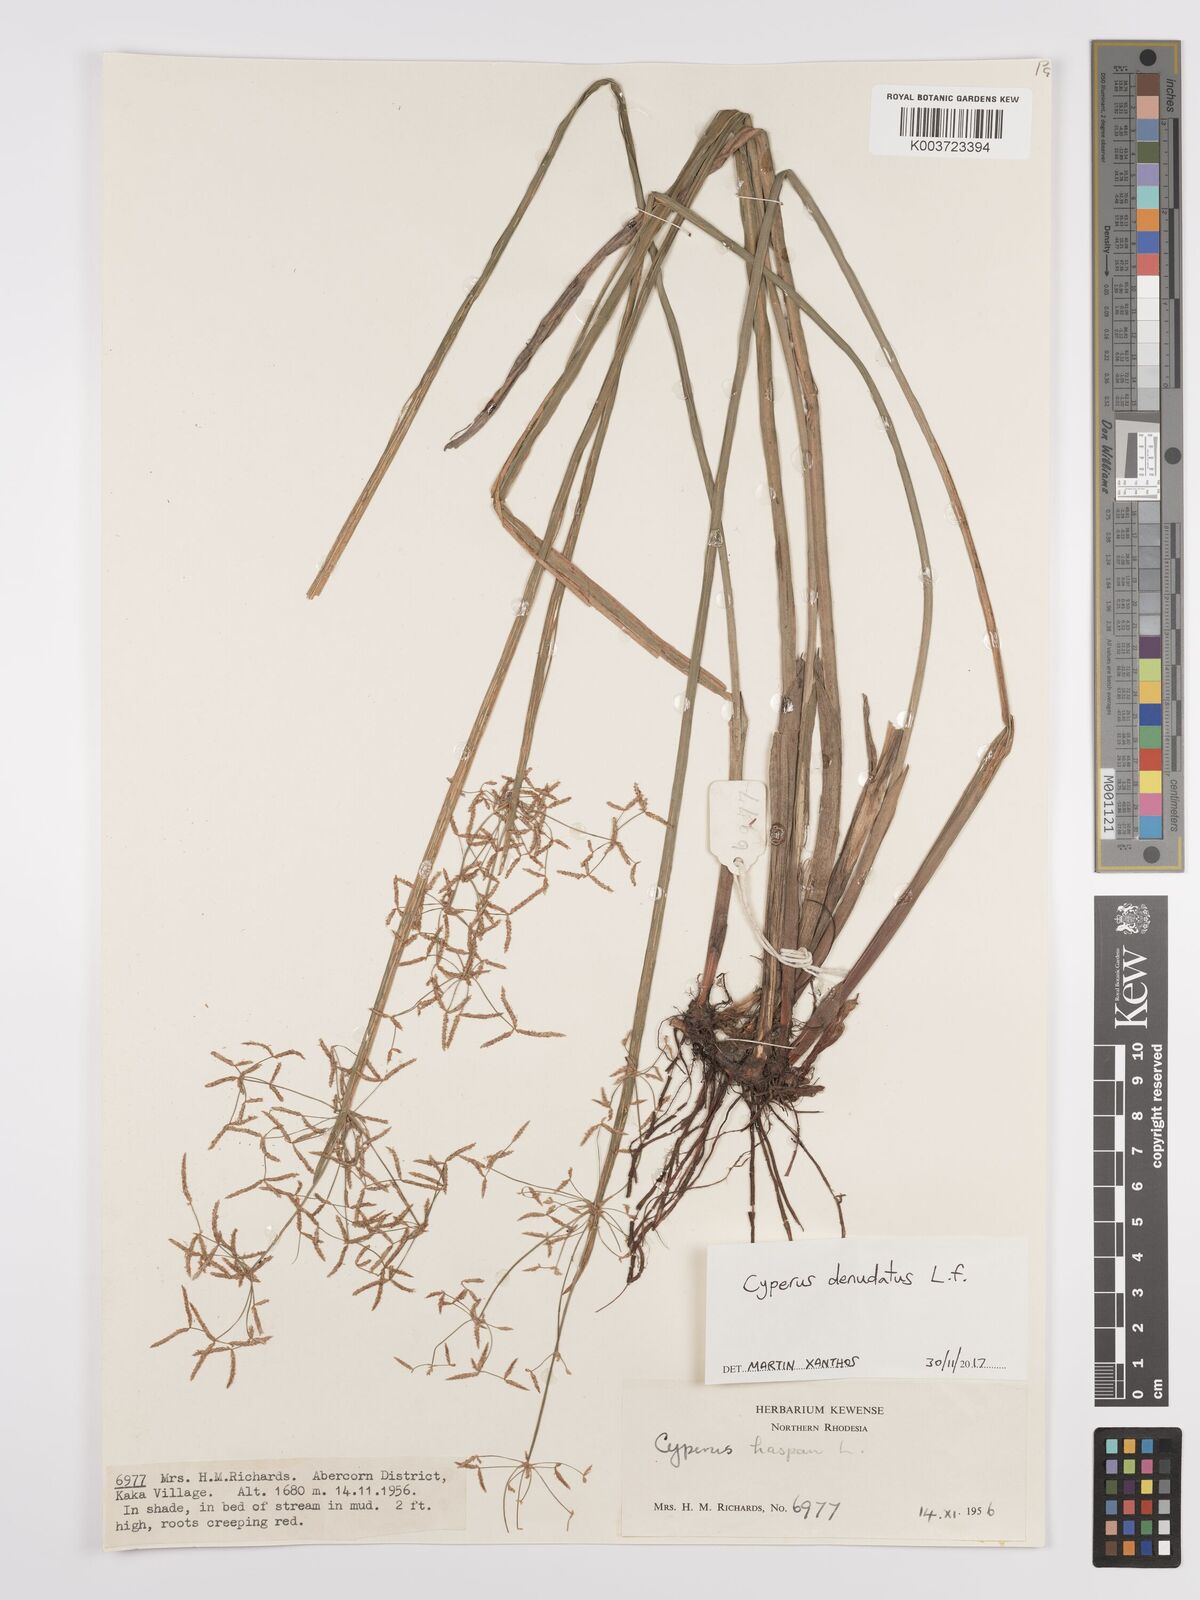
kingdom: Plantae
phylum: Tracheophyta
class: Liliopsida
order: Poales
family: Cyperaceae
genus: Cyperus
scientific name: Cyperus denudatus
